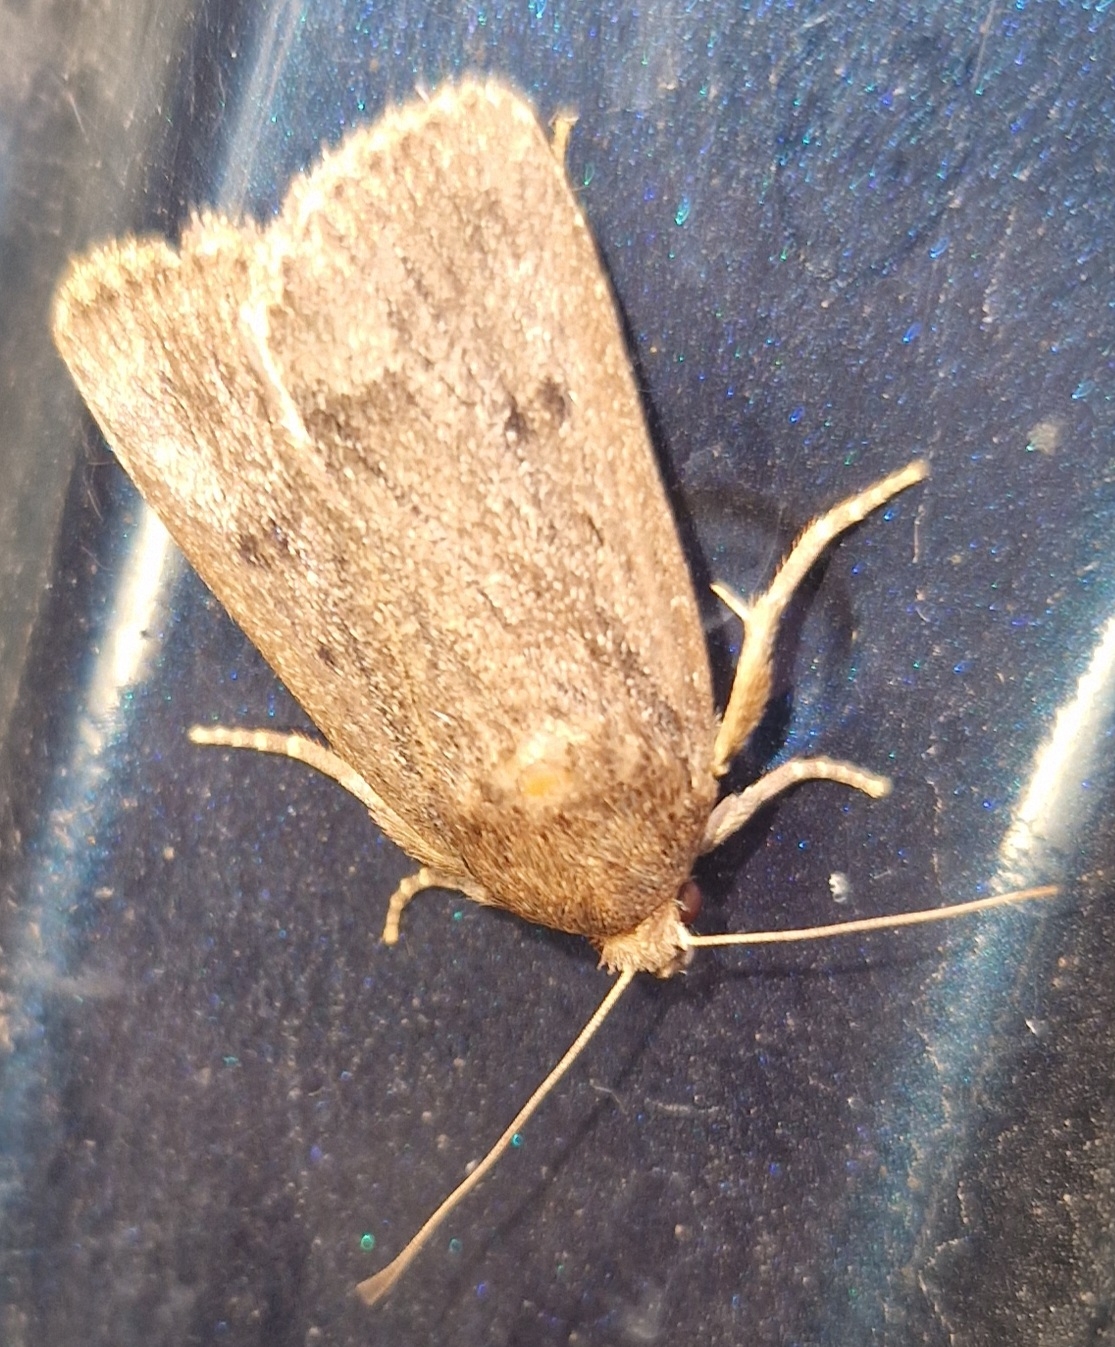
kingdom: Animalia
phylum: Arthropoda
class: Insecta
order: Lepidoptera
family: Noctuidae
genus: Amphipyra
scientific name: Amphipyra tragopoginis
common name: Blyantsugle
